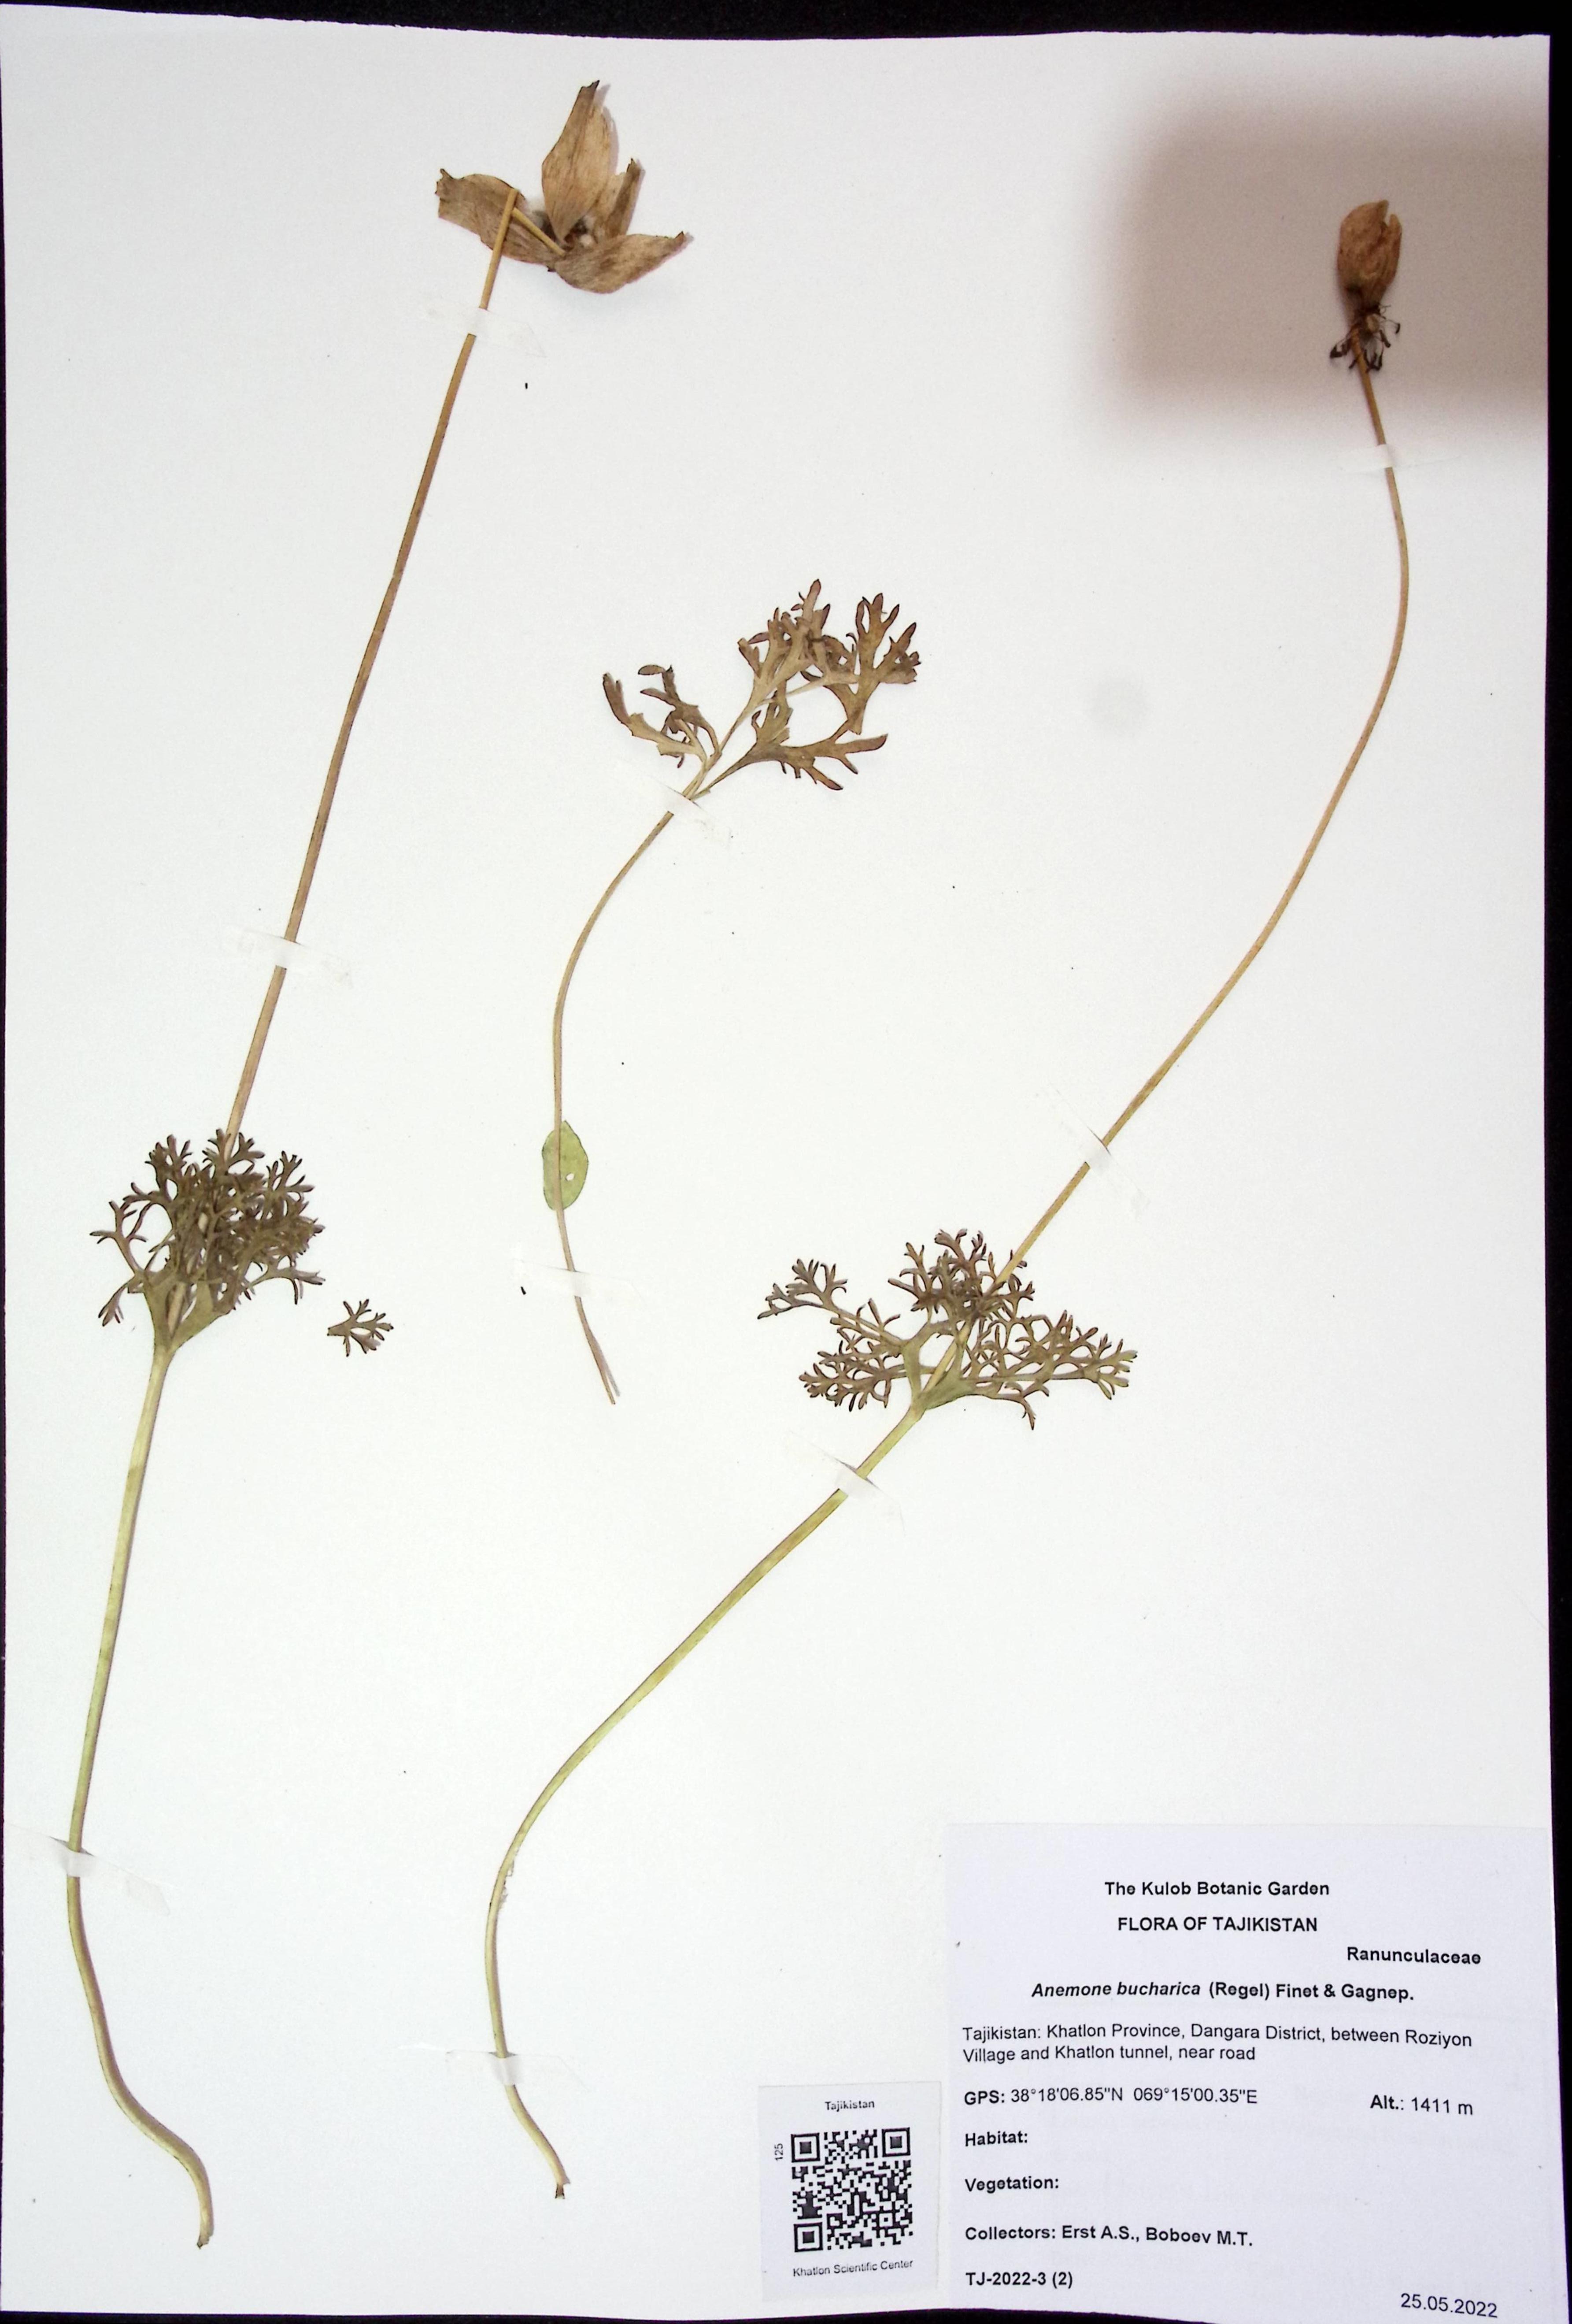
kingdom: Plantae
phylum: Tracheophyta
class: Magnoliopsida
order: Ranunculales
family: Ranunculaceae
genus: Anemone
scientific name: Anemone bucharica
